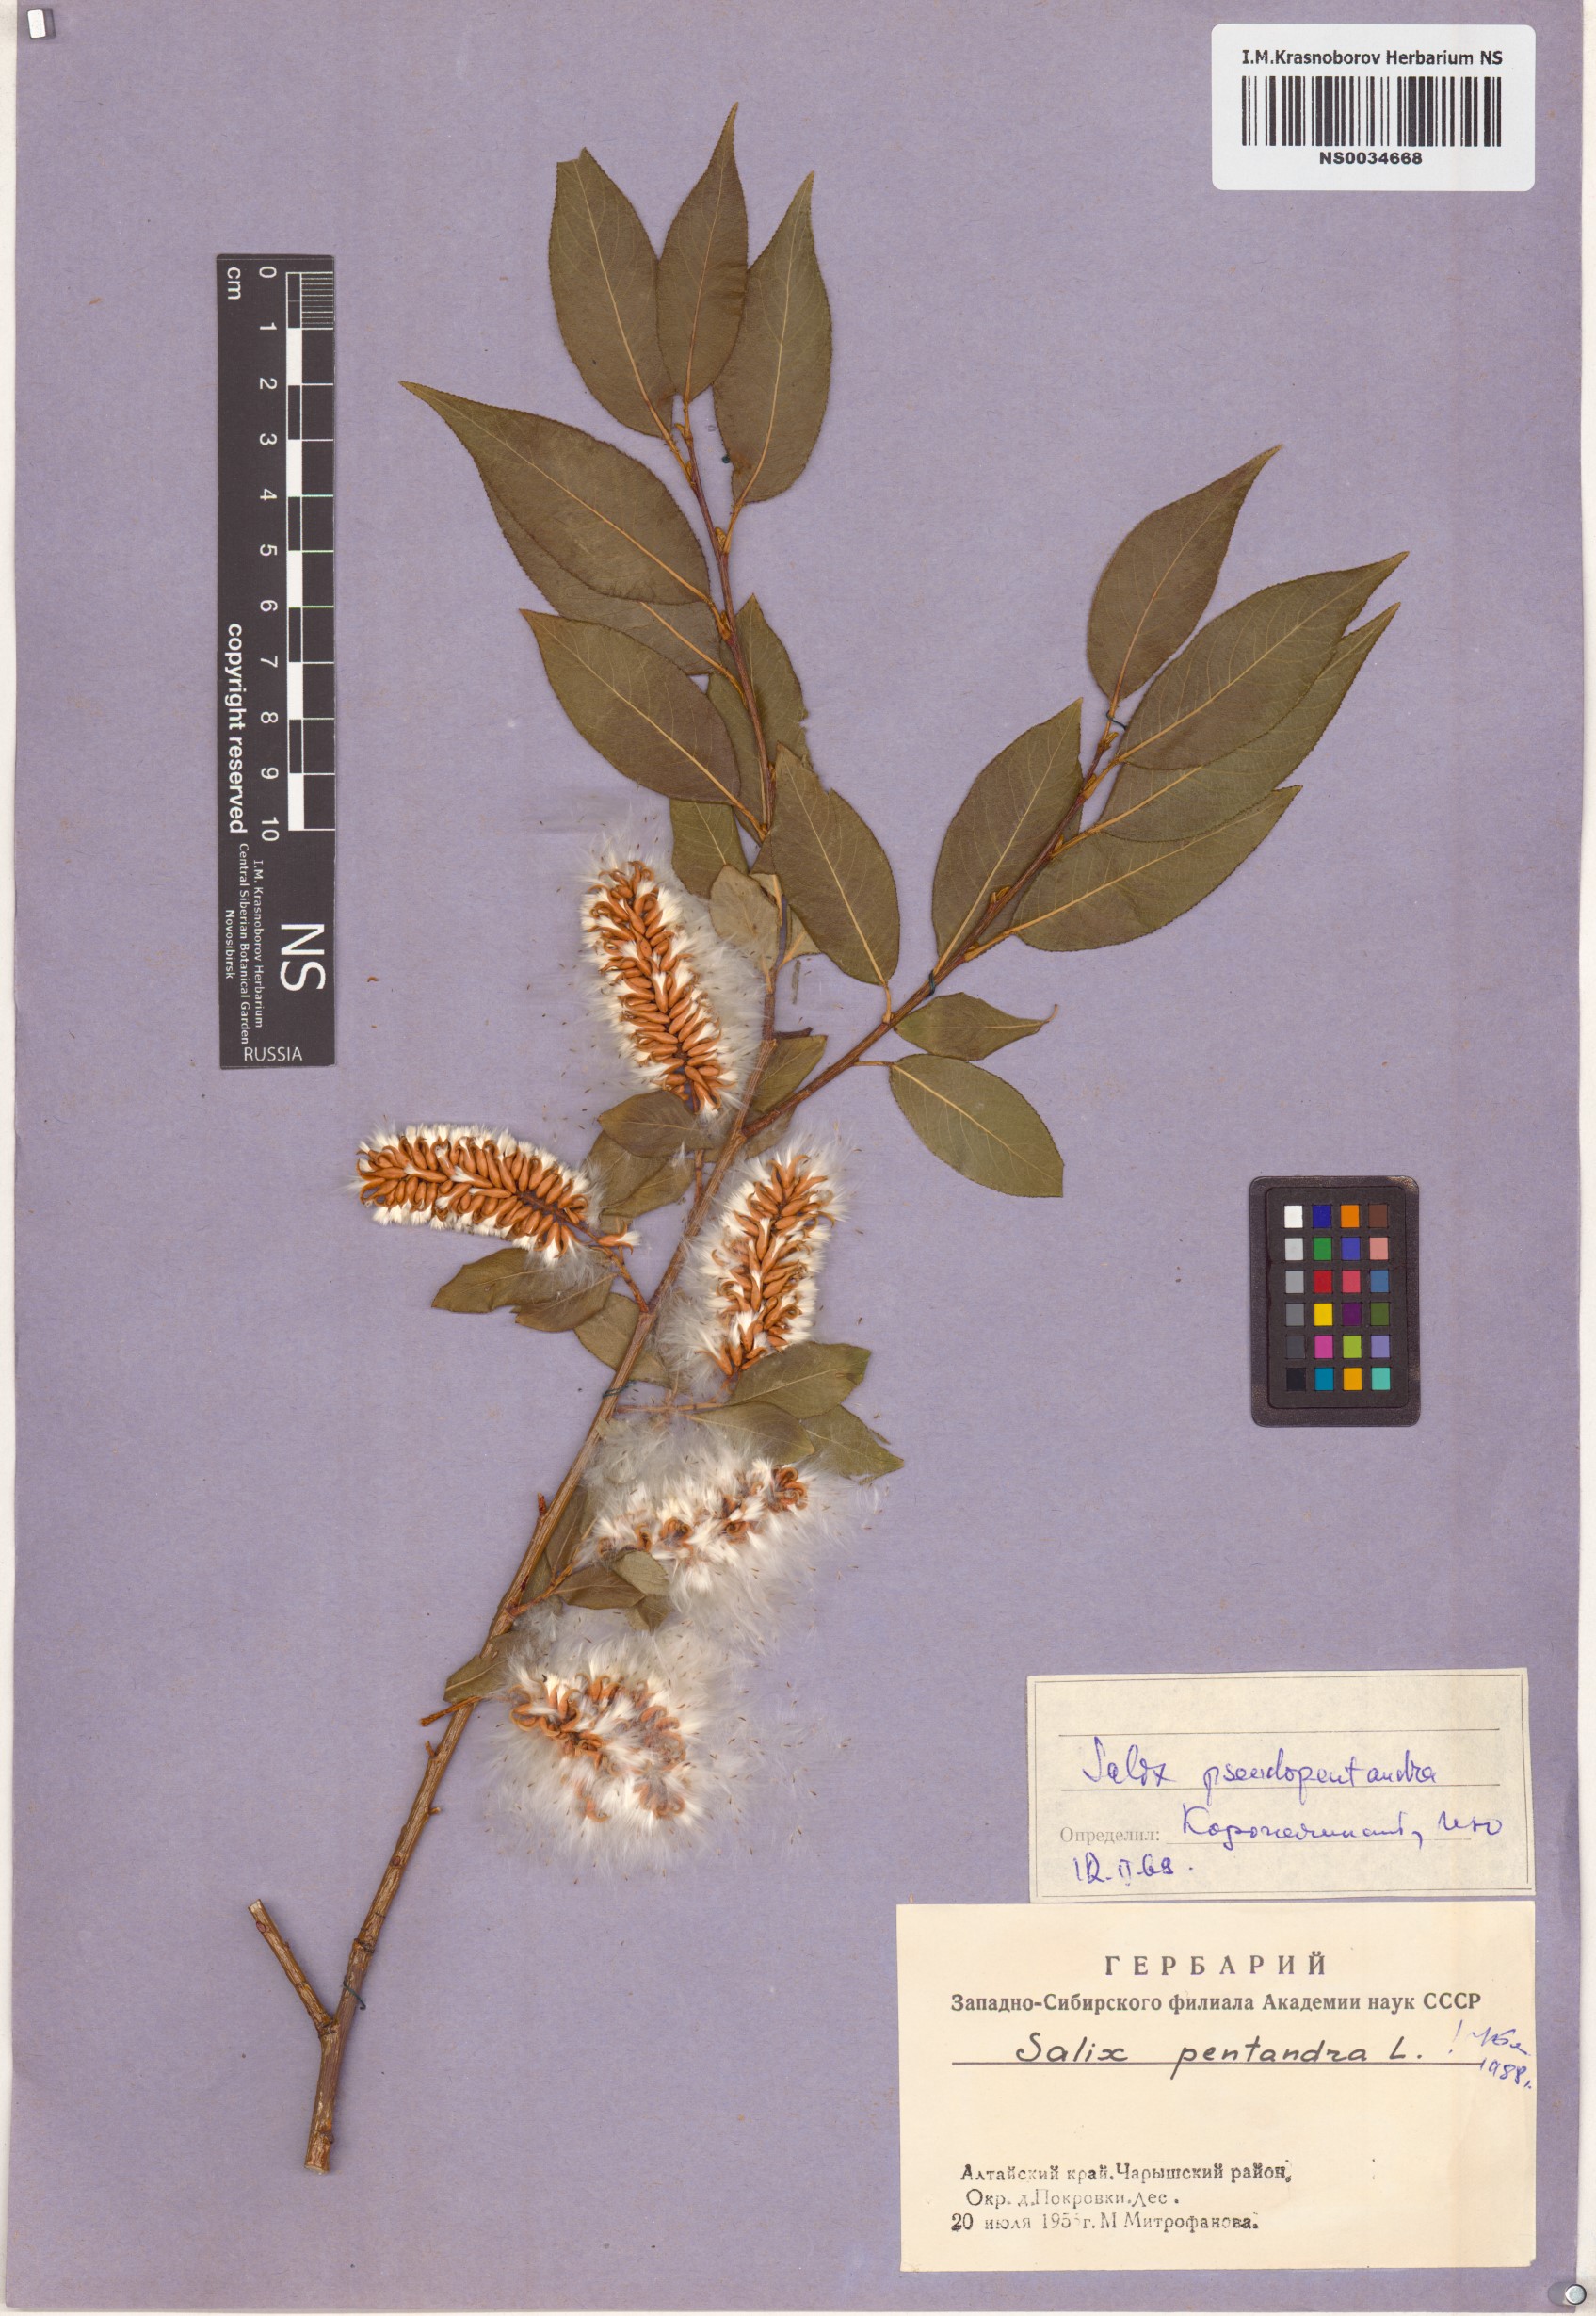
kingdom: Plantae
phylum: Tracheophyta
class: Magnoliopsida
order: Malpighiales
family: Salicaceae
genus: Salix
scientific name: Salix pentandra
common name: Bay willow
